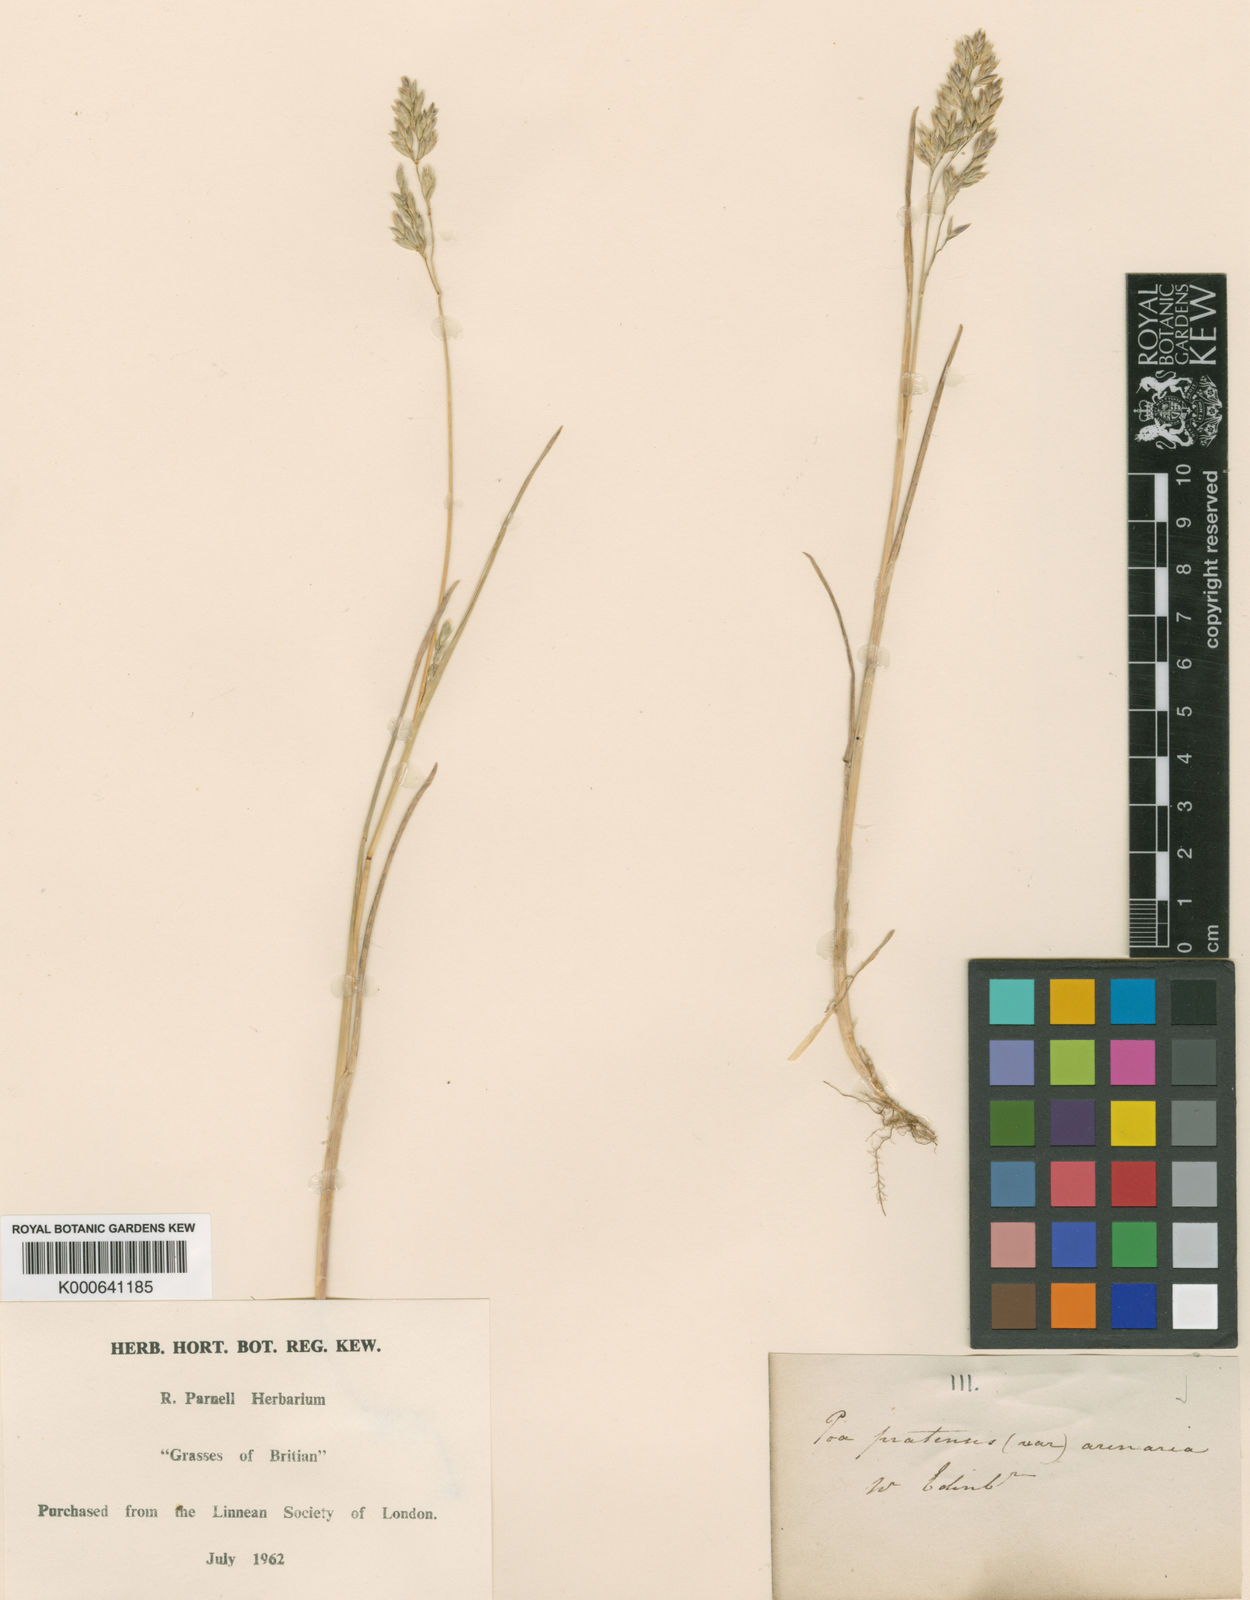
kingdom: Plantae
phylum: Tracheophyta
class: Liliopsida
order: Poales
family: Poaceae
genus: Poa
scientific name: Poa pratensis
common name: Kentucky bluegrass
